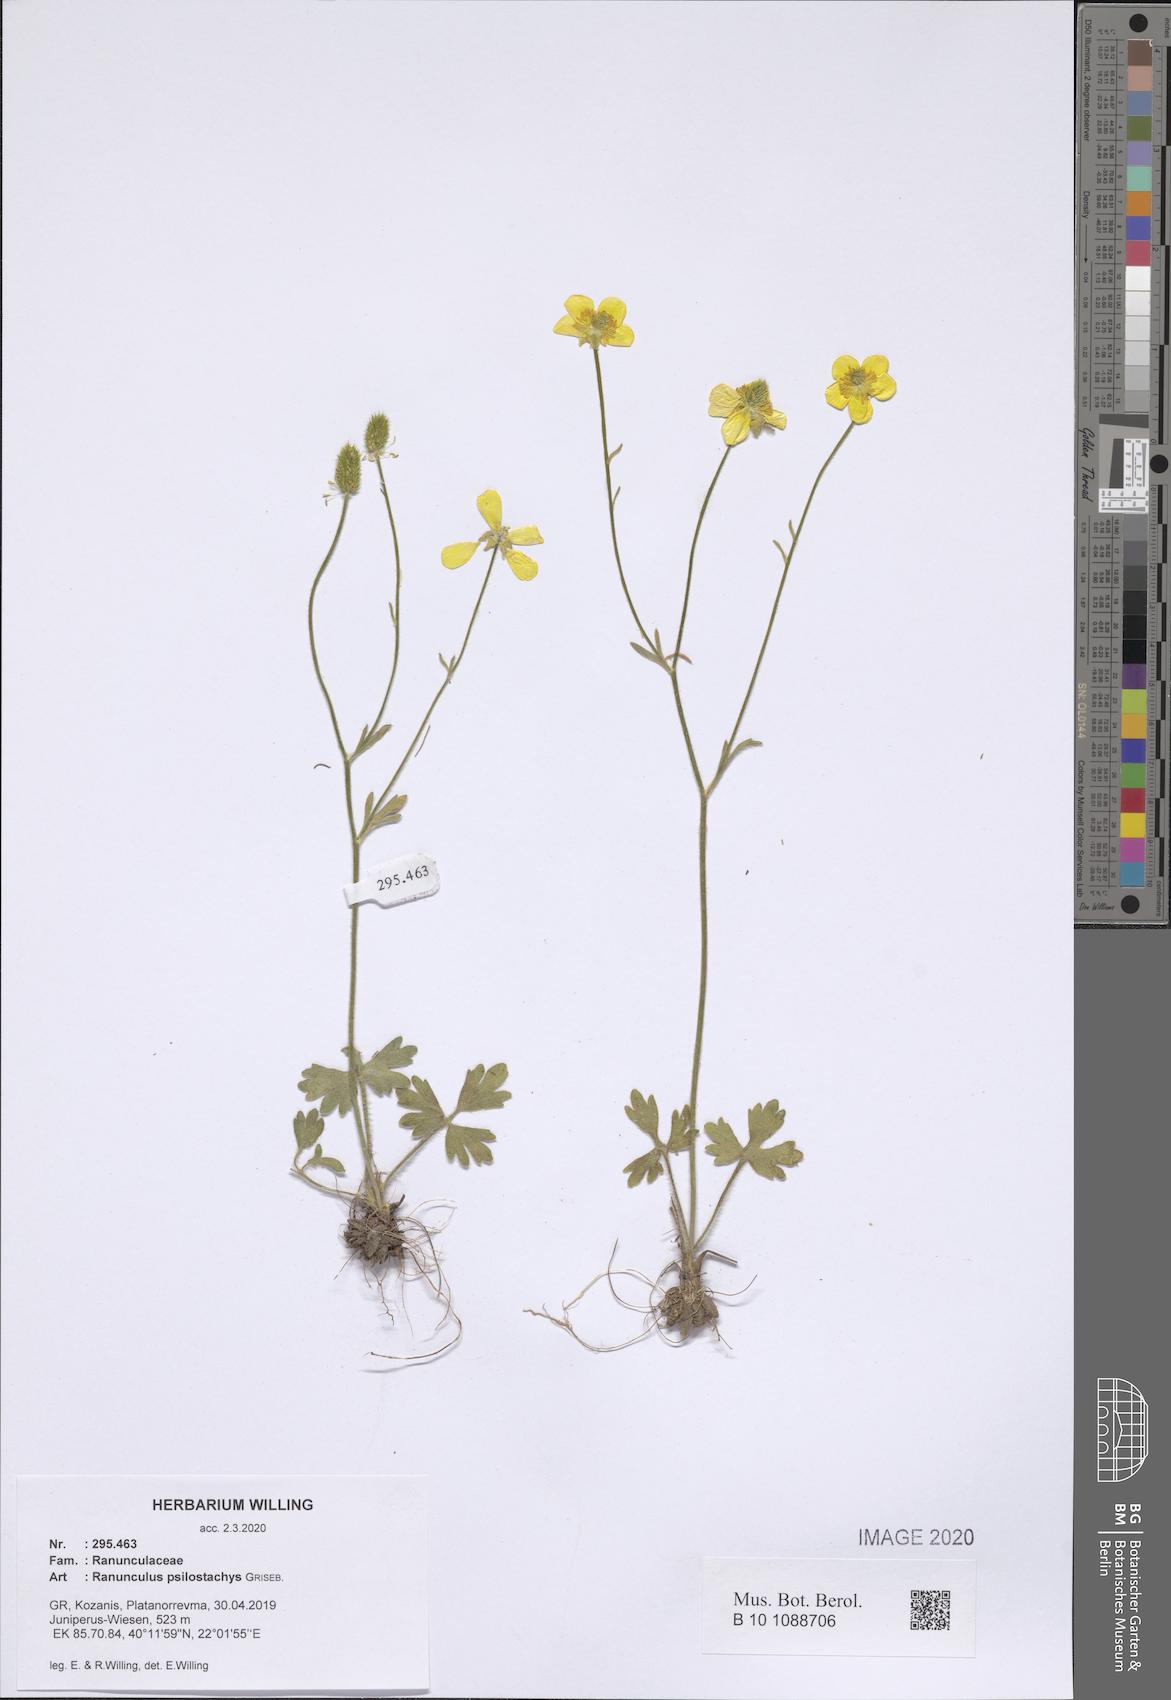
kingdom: Plantae
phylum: Tracheophyta
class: Magnoliopsida
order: Ranunculales
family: Ranunculaceae
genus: Ranunculus
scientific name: Ranunculus psilostachys
